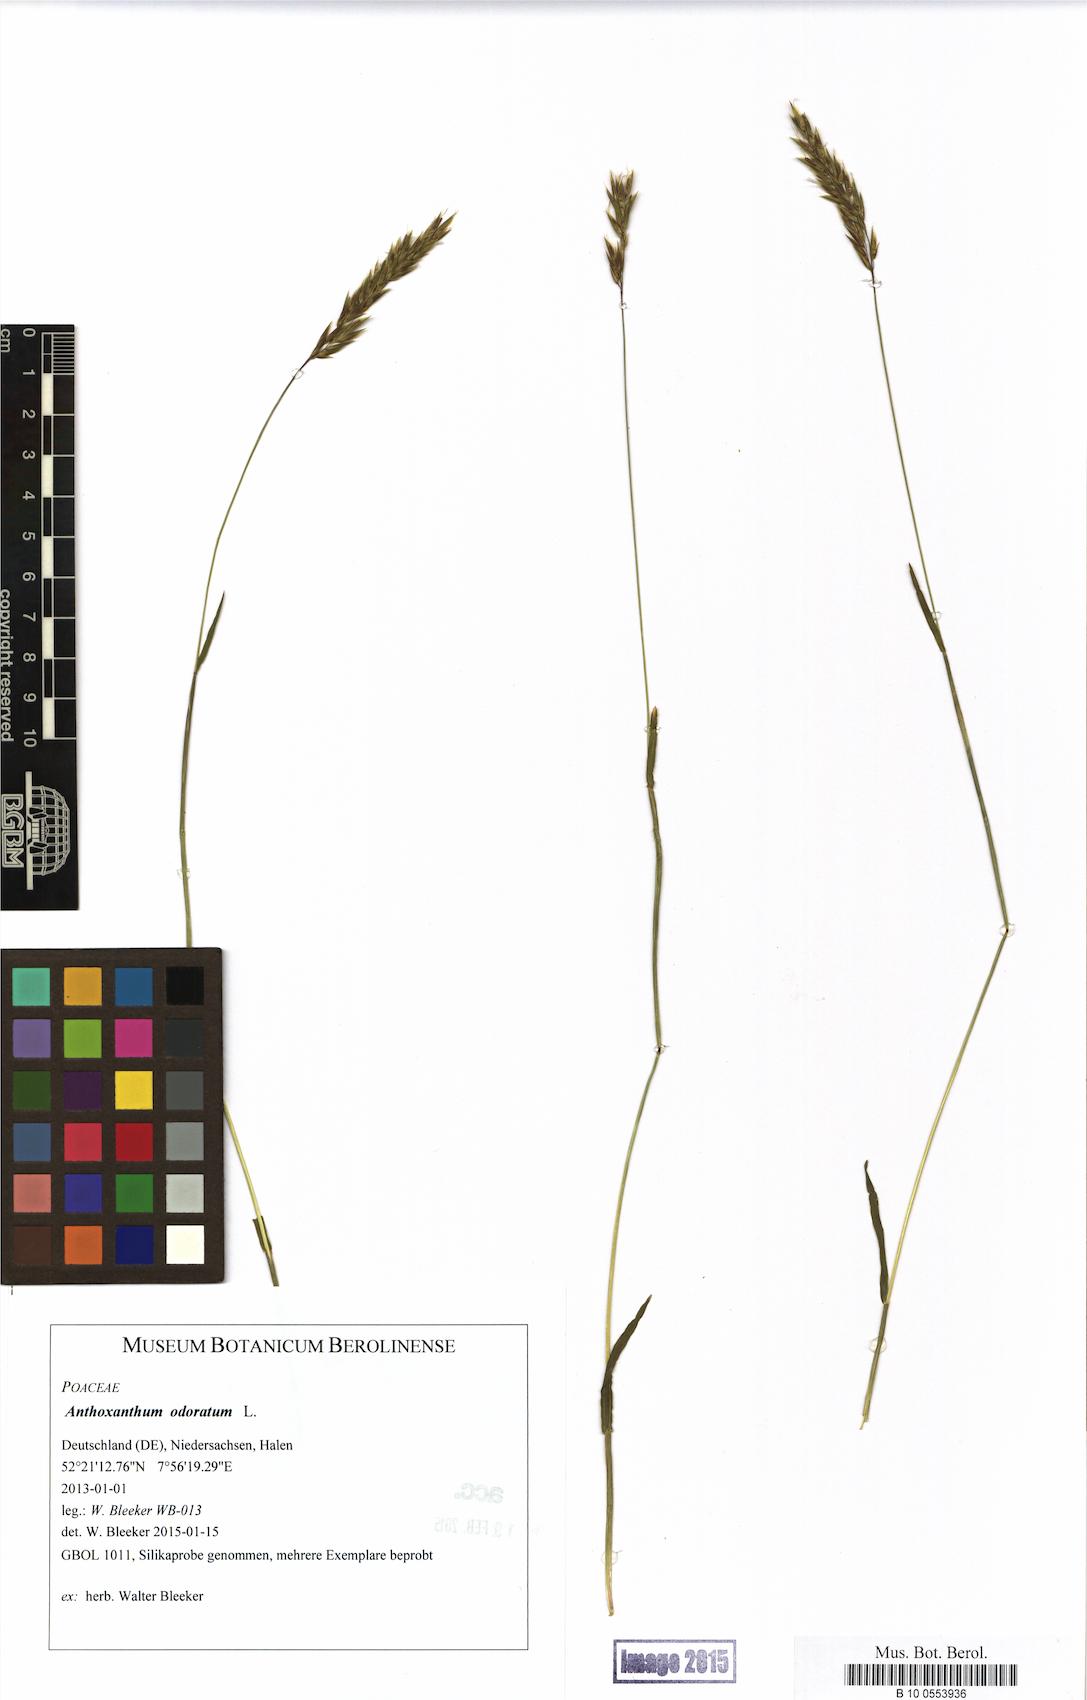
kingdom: Plantae
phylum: Tracheophyta
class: Liliopsida
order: Poales
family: Poaceae
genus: Anthoxanthum
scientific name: Anthoxanthum odoratum
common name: Sweet vernalgrass
